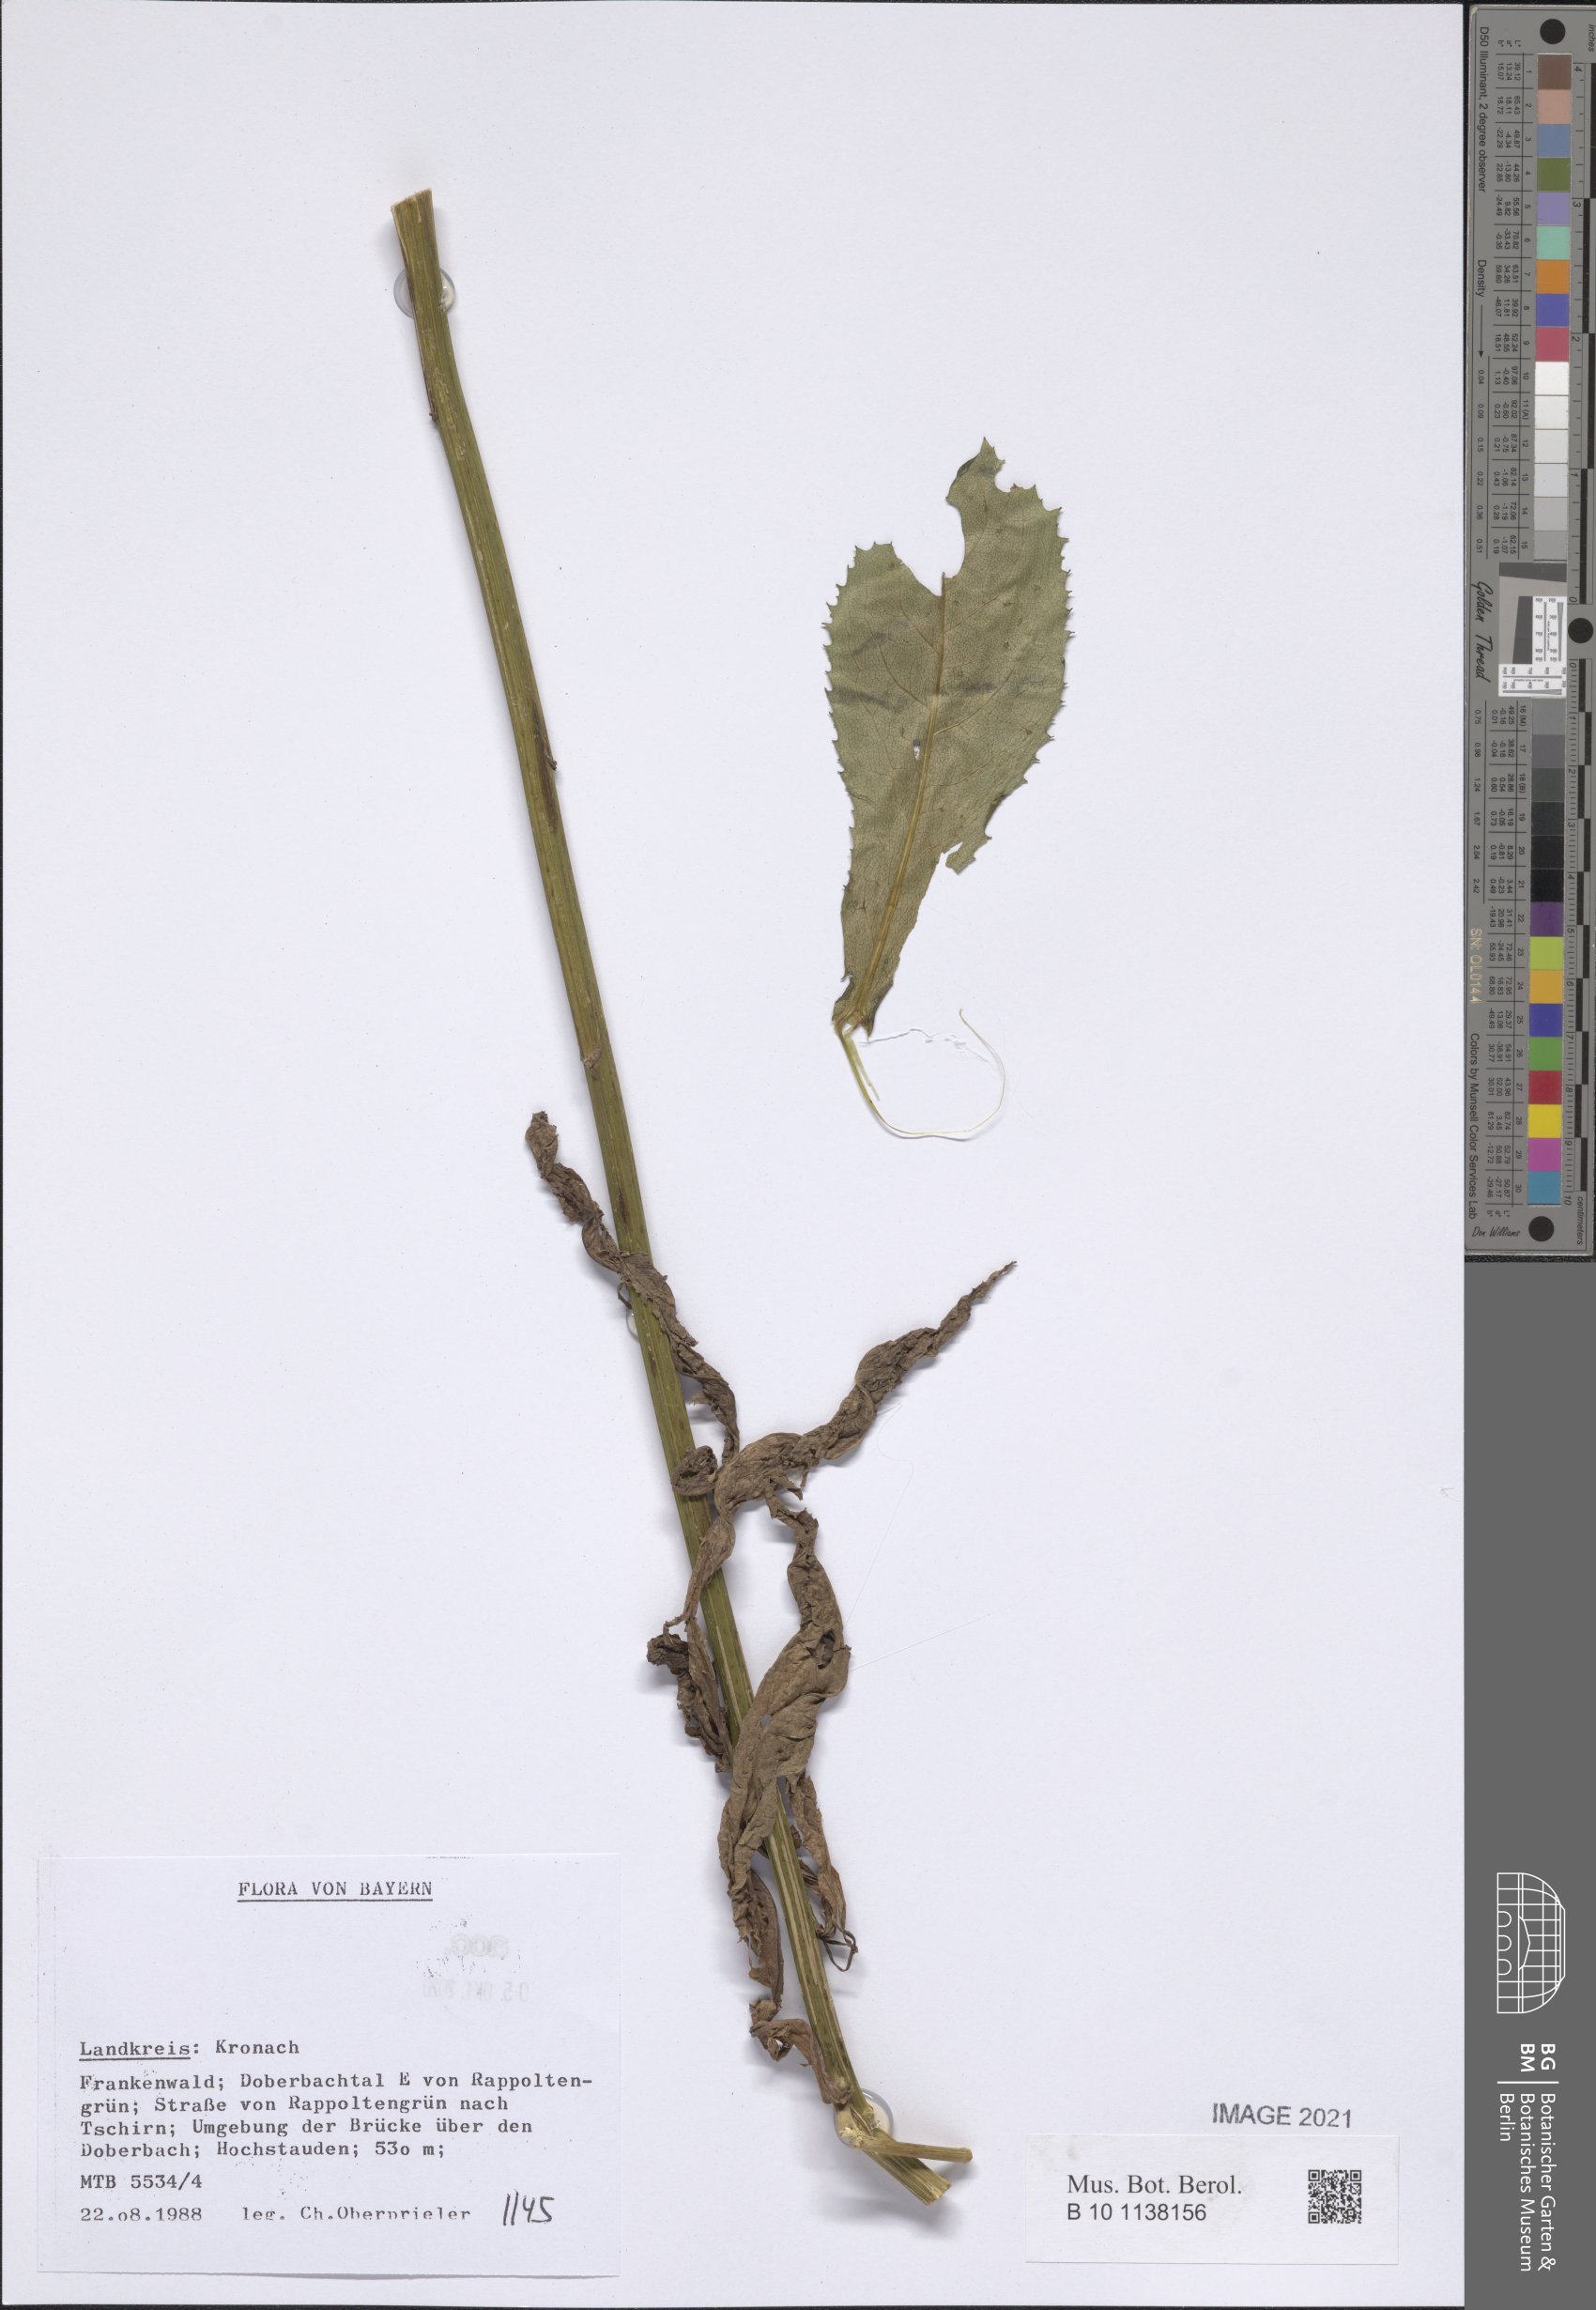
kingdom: Plantae
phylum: Tracheophyta
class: Magnoliopsida
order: Asterales
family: Asteraceae
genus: Senecio
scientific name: Senecio
